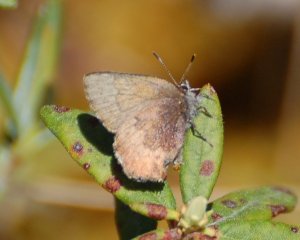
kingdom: Animalia
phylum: Arthropoda
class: Insecta
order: Lepidoptera
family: Lycaenidae
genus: Incisalia
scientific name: Incisalia irioides
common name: Brown Elfin
